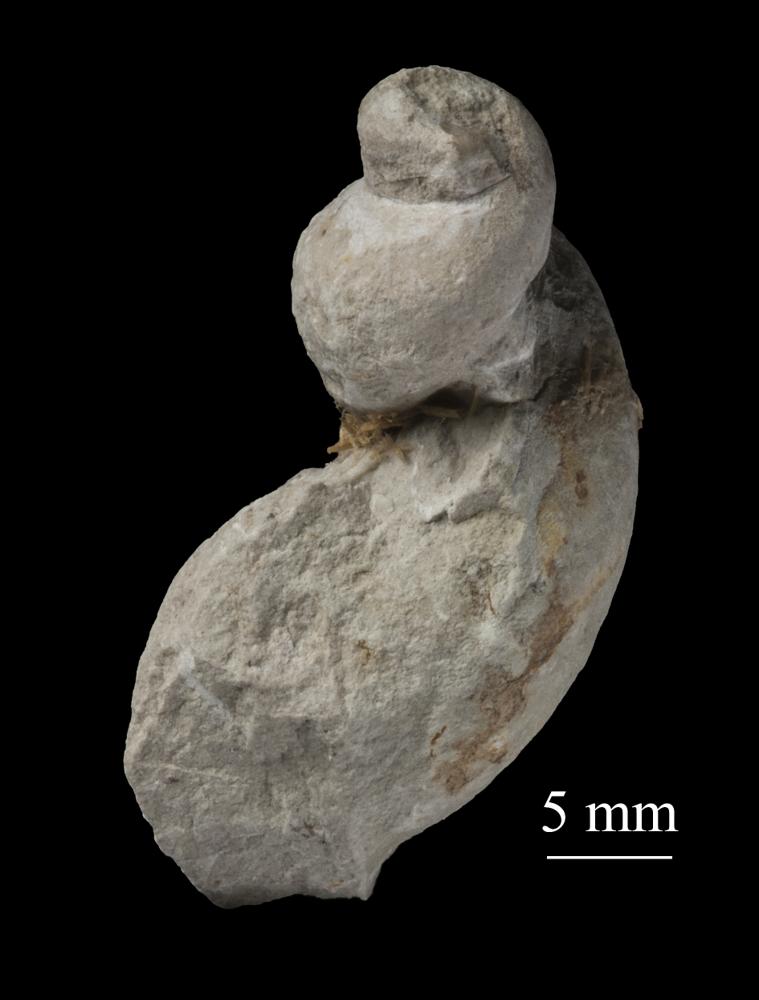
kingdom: Animalia
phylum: Mollusca
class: Gastropoda
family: Lophospiridae
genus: Loxoplocus
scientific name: Loxoplocus Worthenia vermetus
